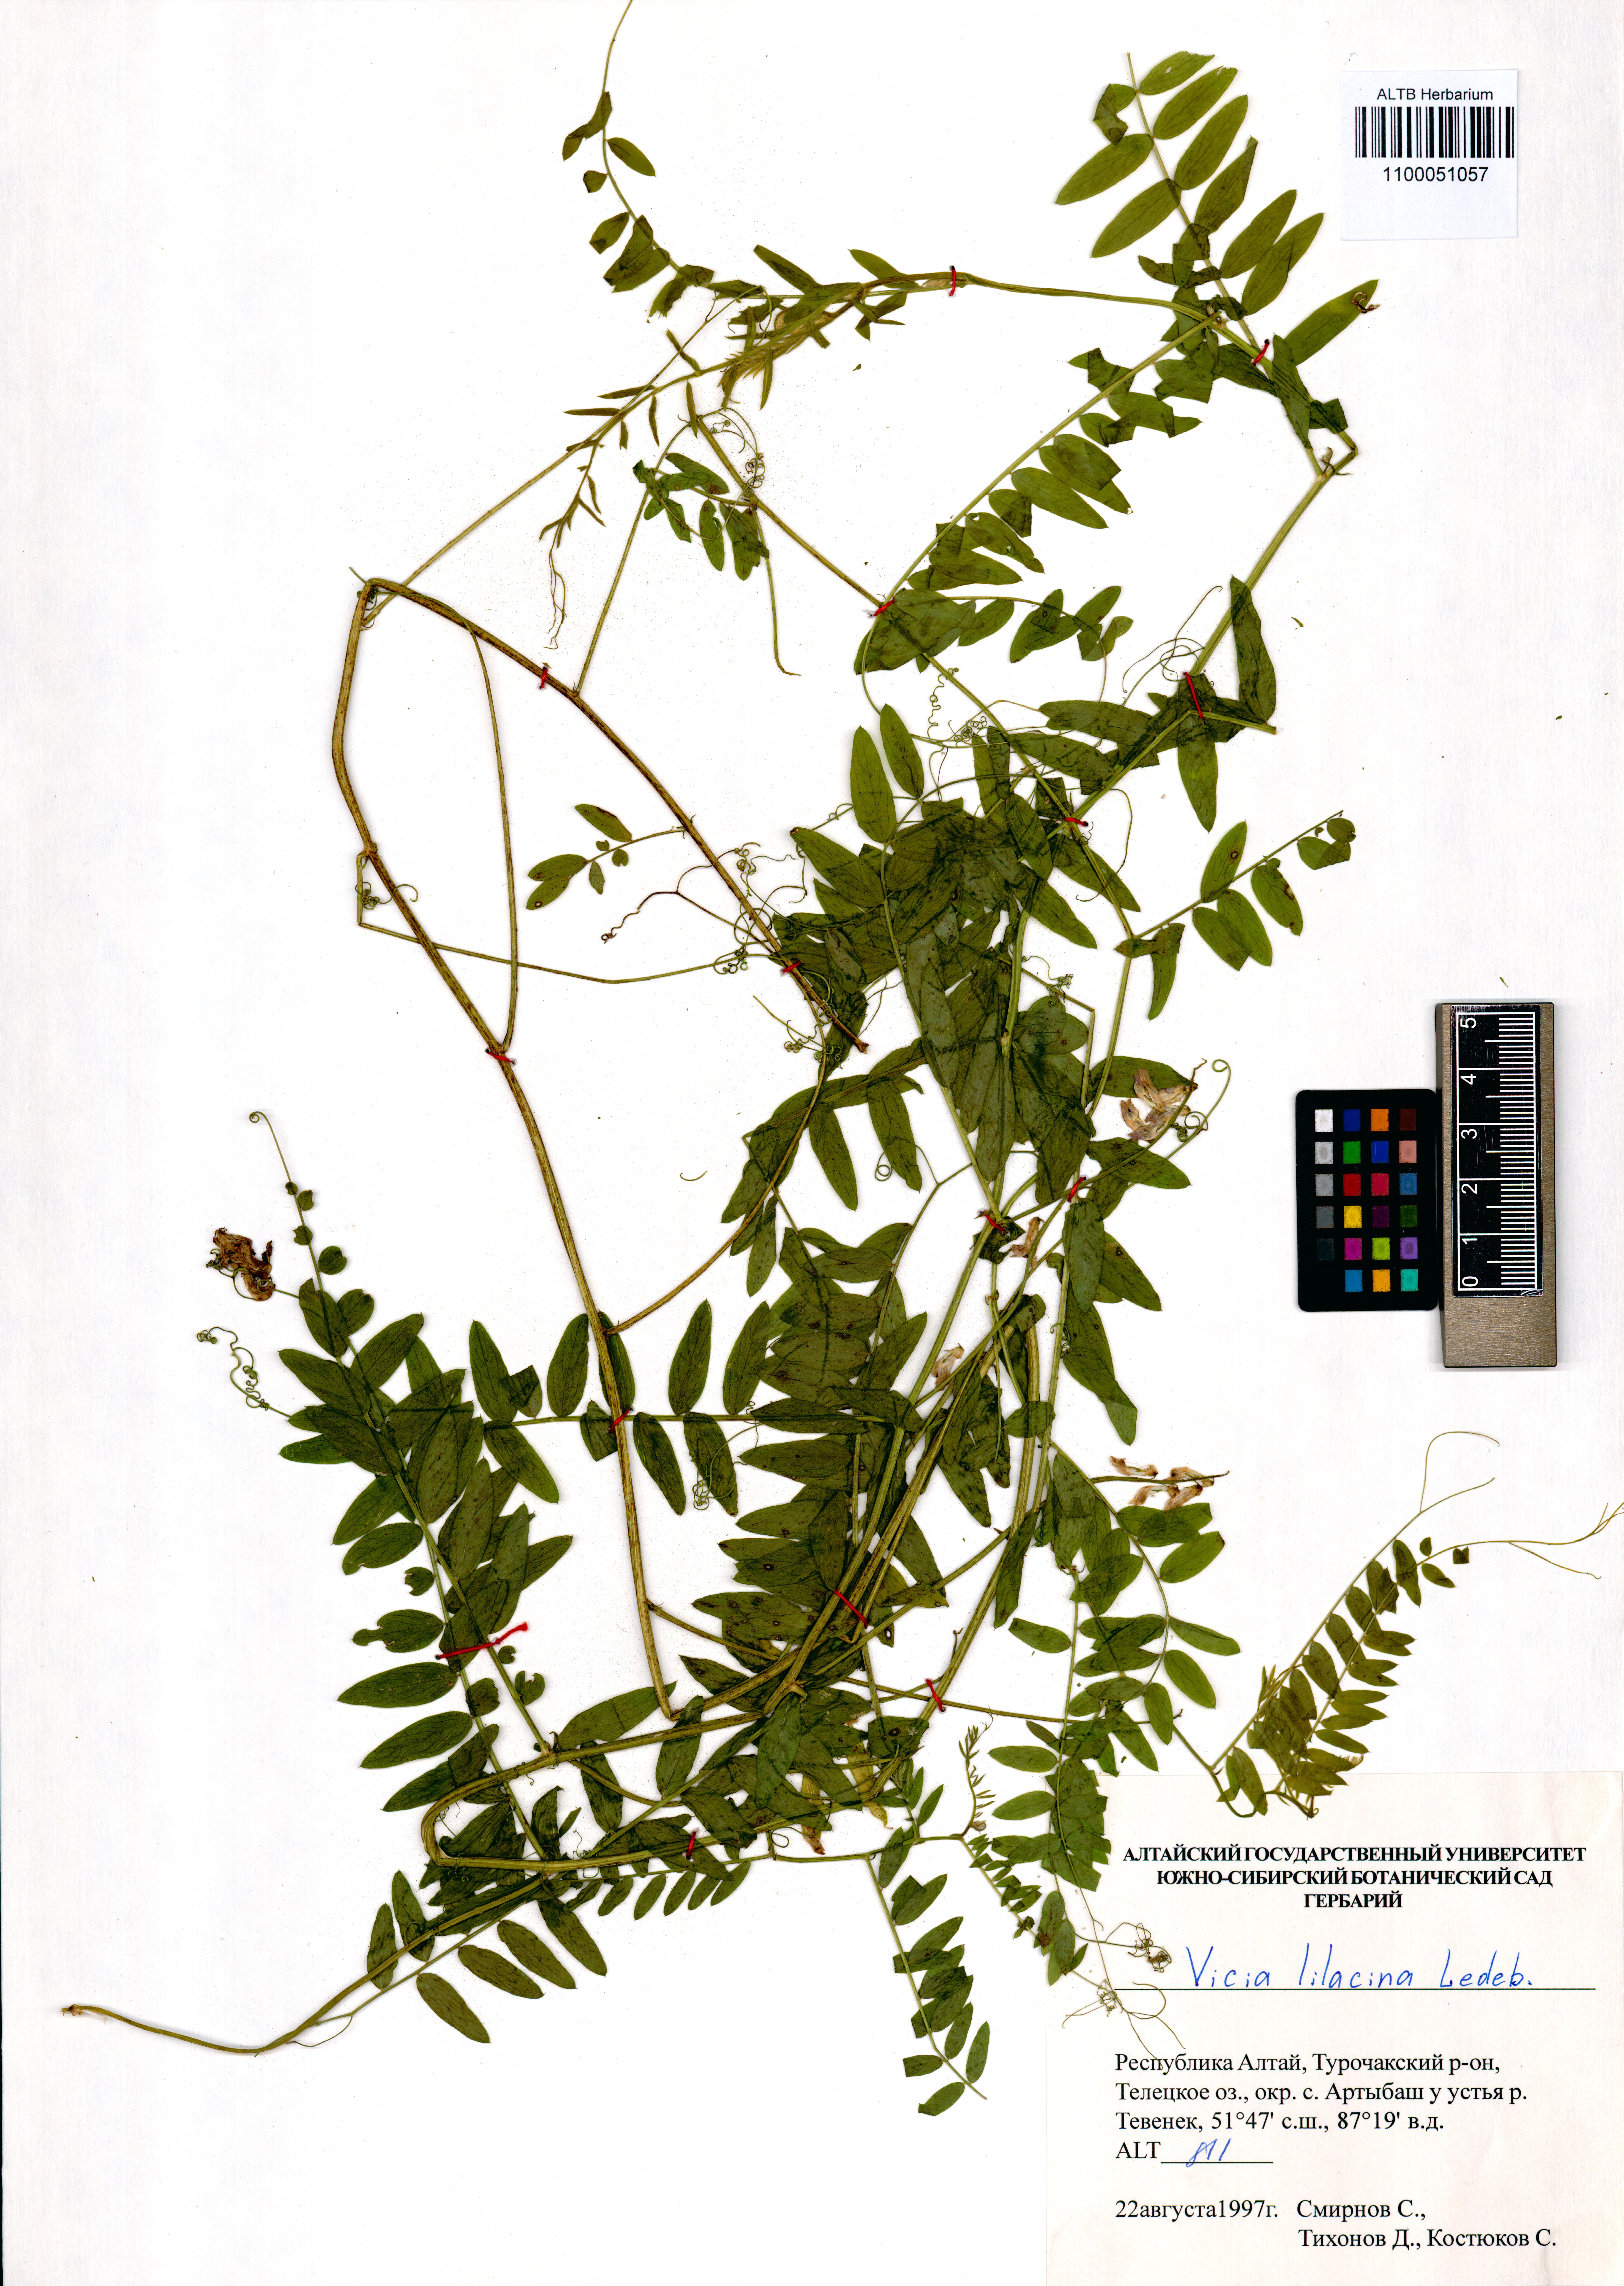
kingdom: Plantae
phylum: Tracheophyta
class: Magnoliopsida
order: Fabales
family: Fabaceae
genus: Vicia
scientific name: Vicia lilacina
